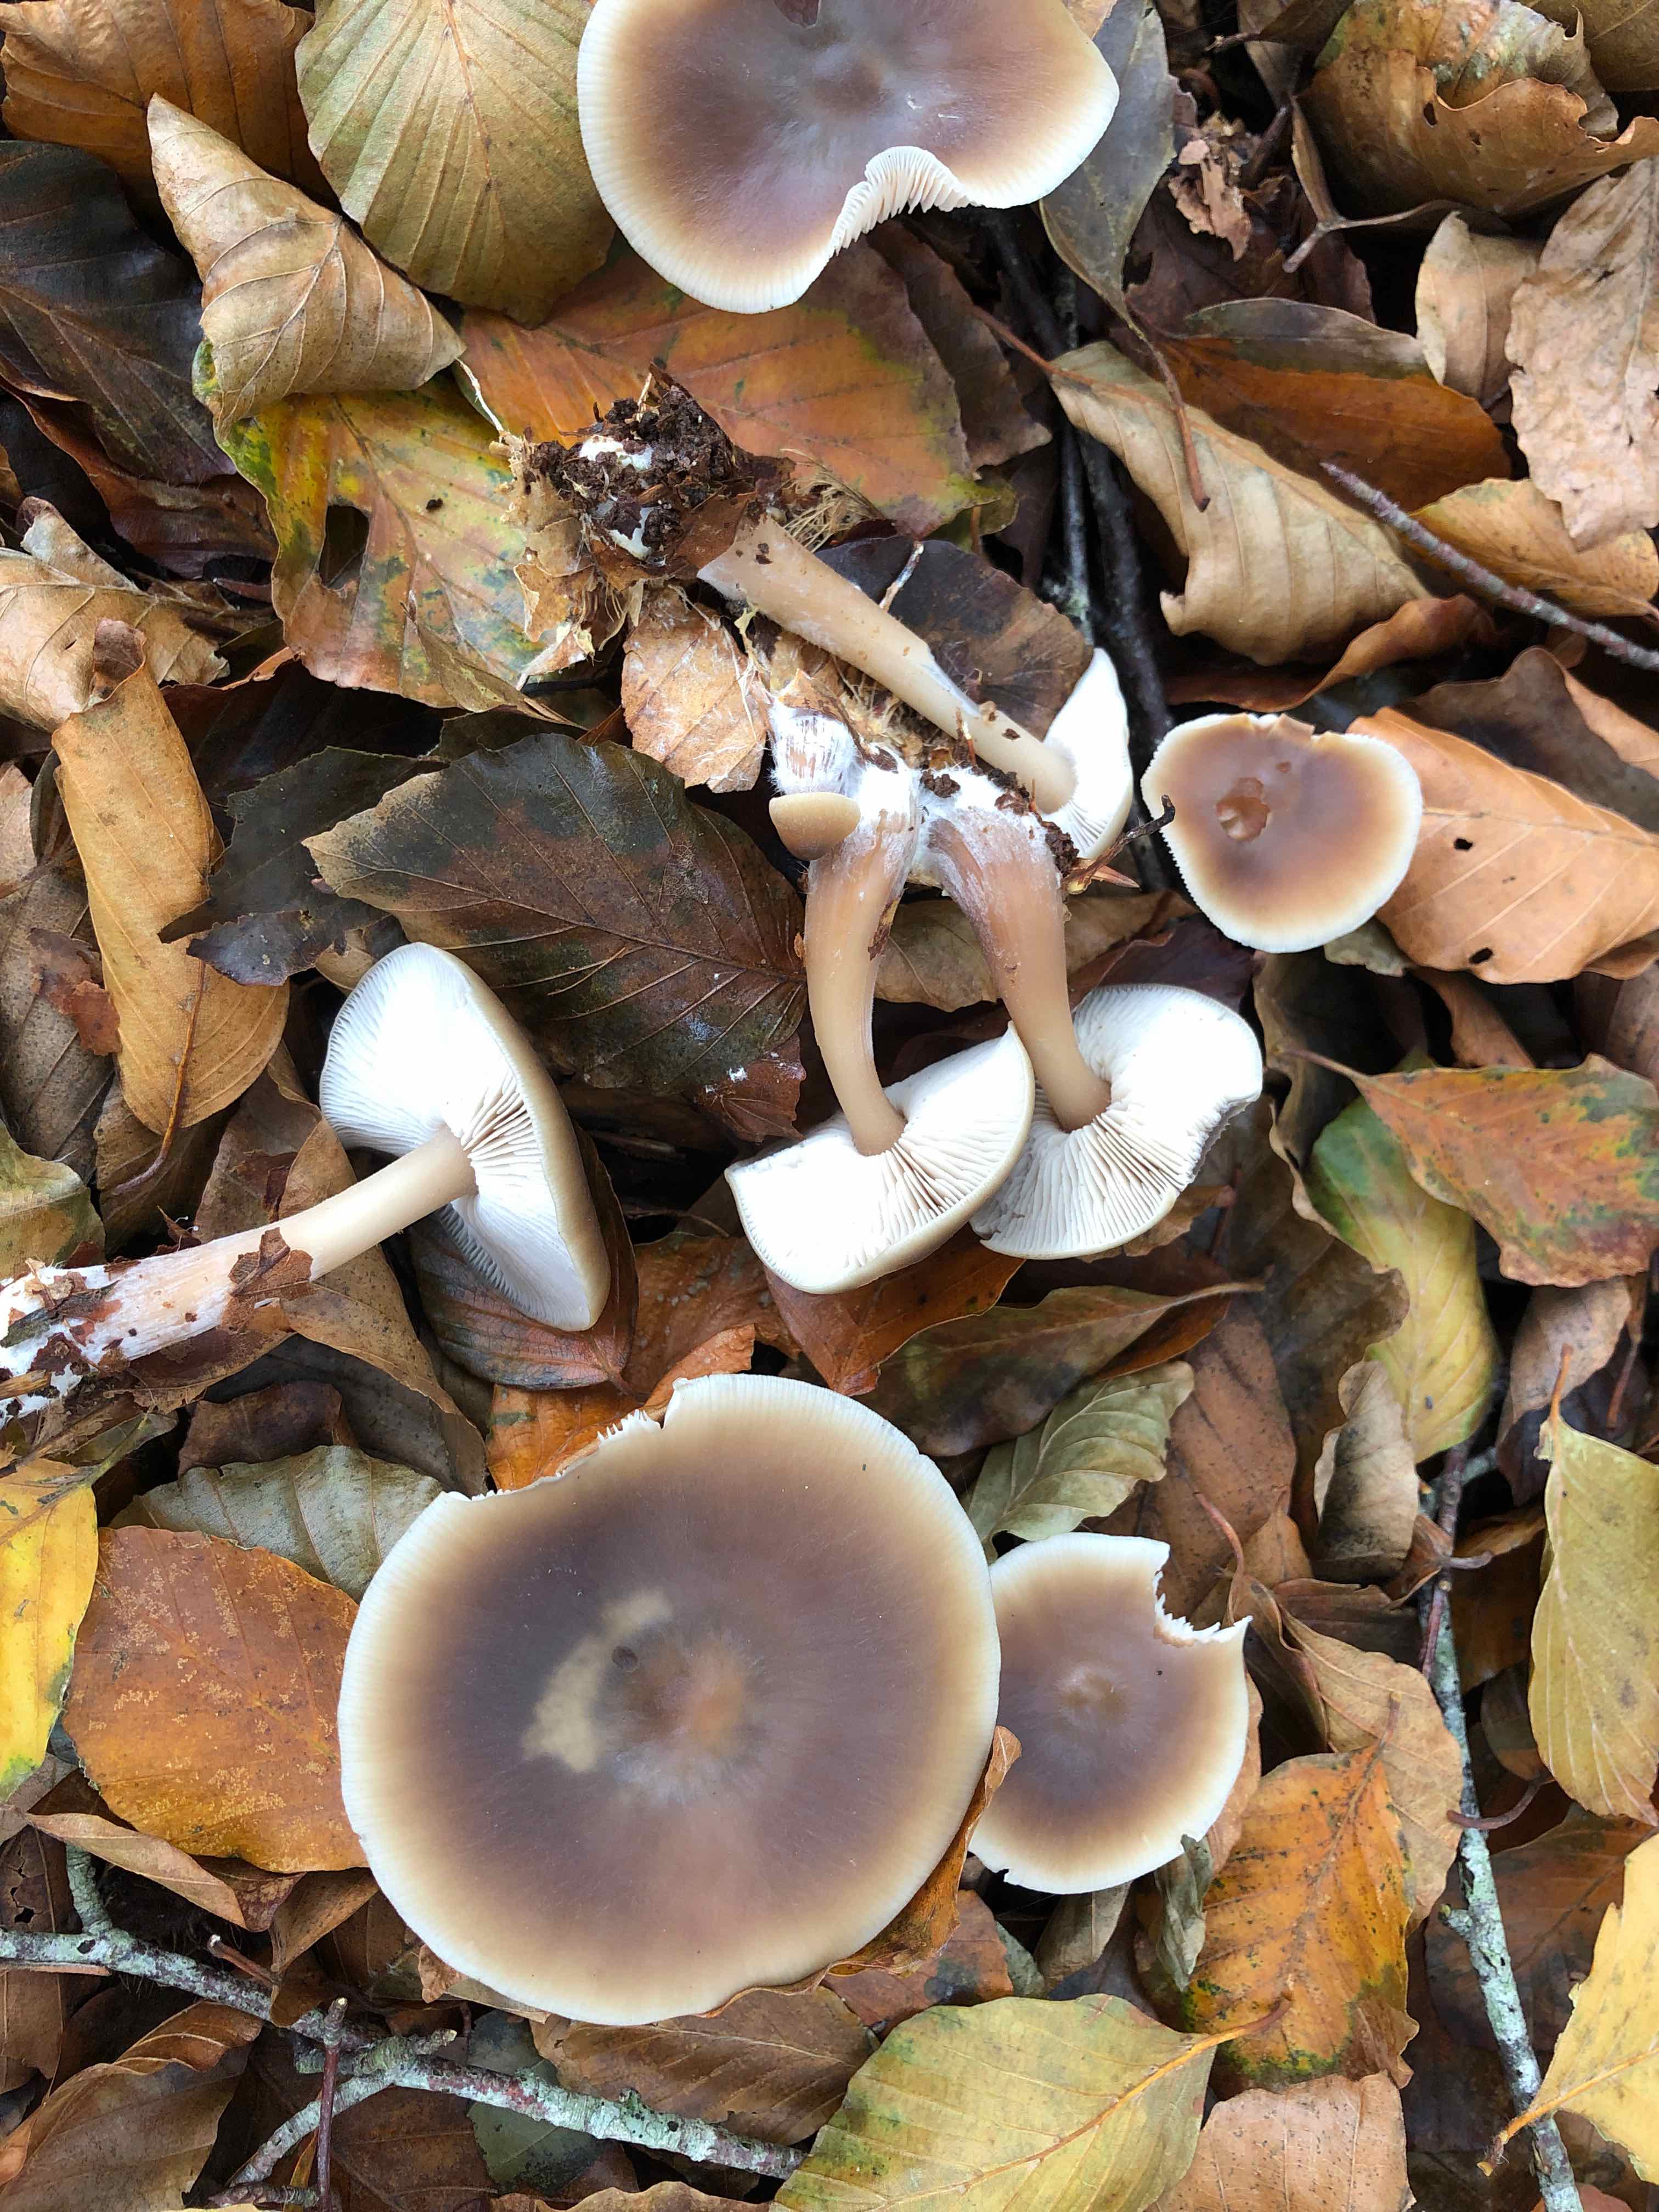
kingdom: Fungi
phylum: Basidiomycota
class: Agaricomycetes
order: Agaricales
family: Omphalotaceae
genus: Rhodocollybia
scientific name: Rhodocollybia asema
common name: horngrå fladhat
